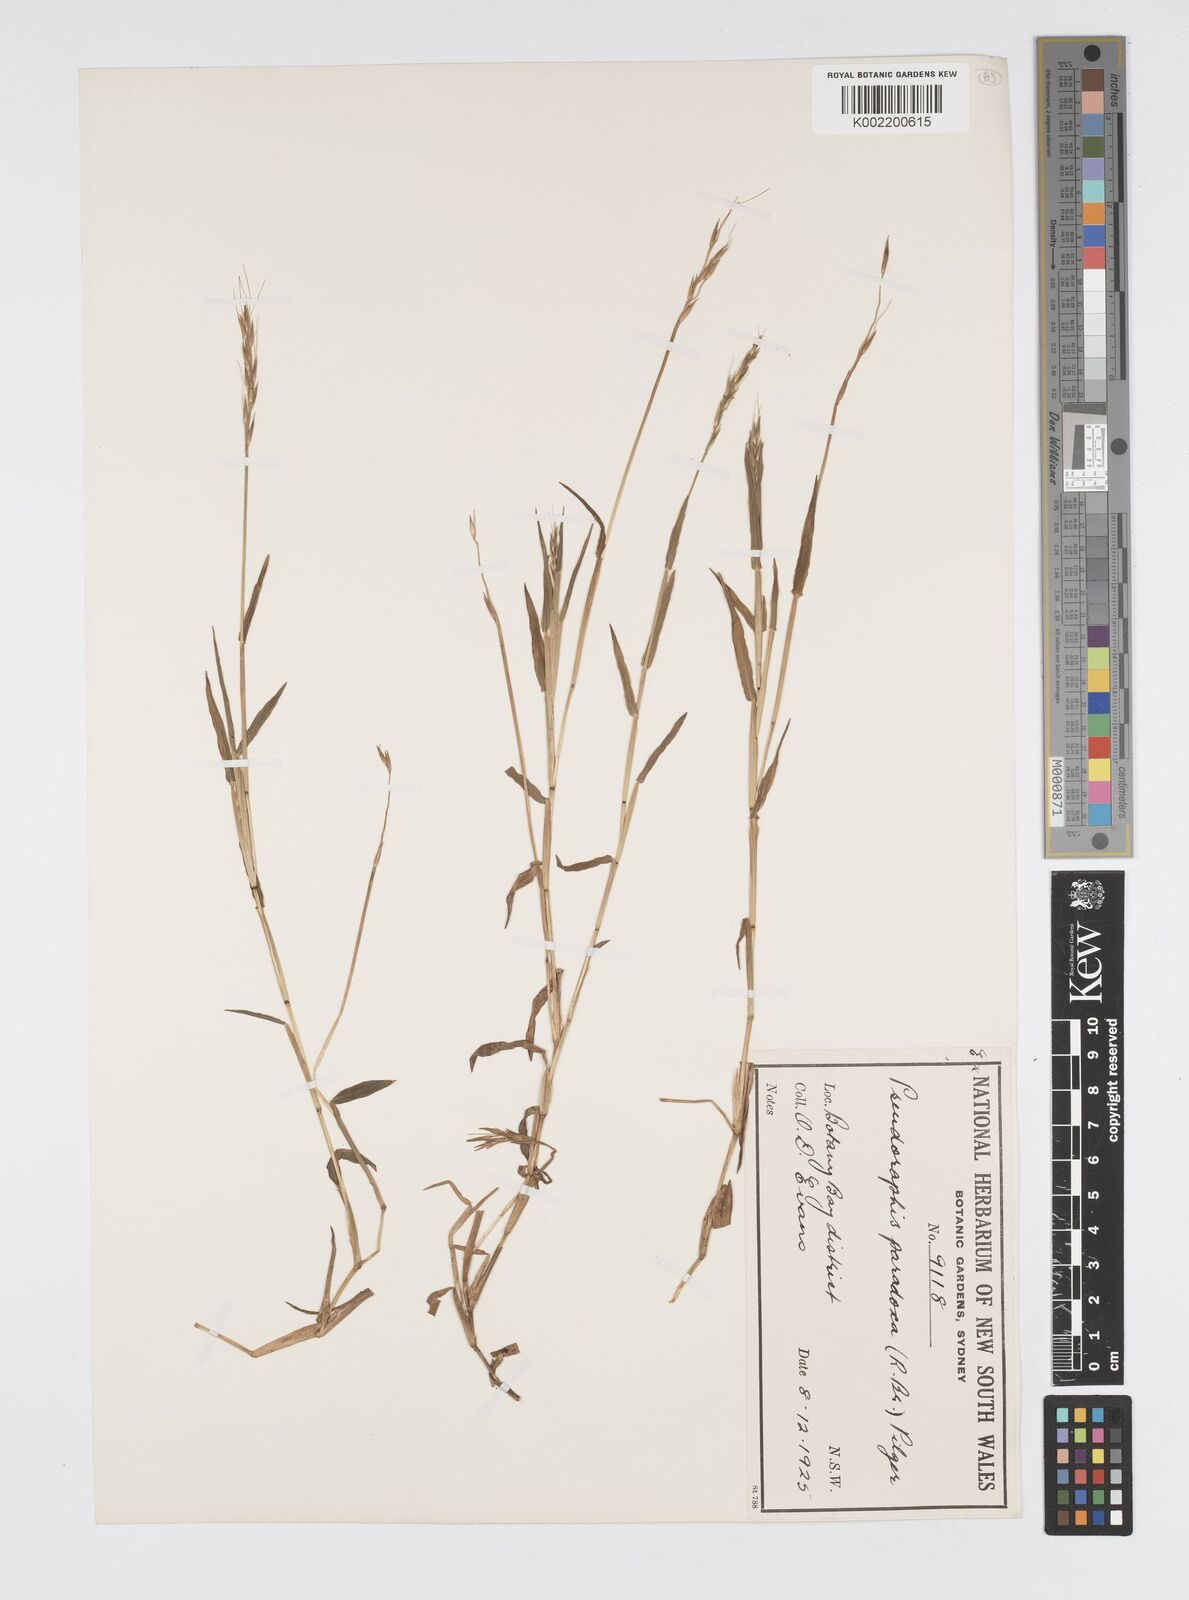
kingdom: Plantae
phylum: Tracheophyta
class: Liliopsida
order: Poales
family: Poaceae
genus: Pseudoraphis
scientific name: Pseudoraphis paradoxa
